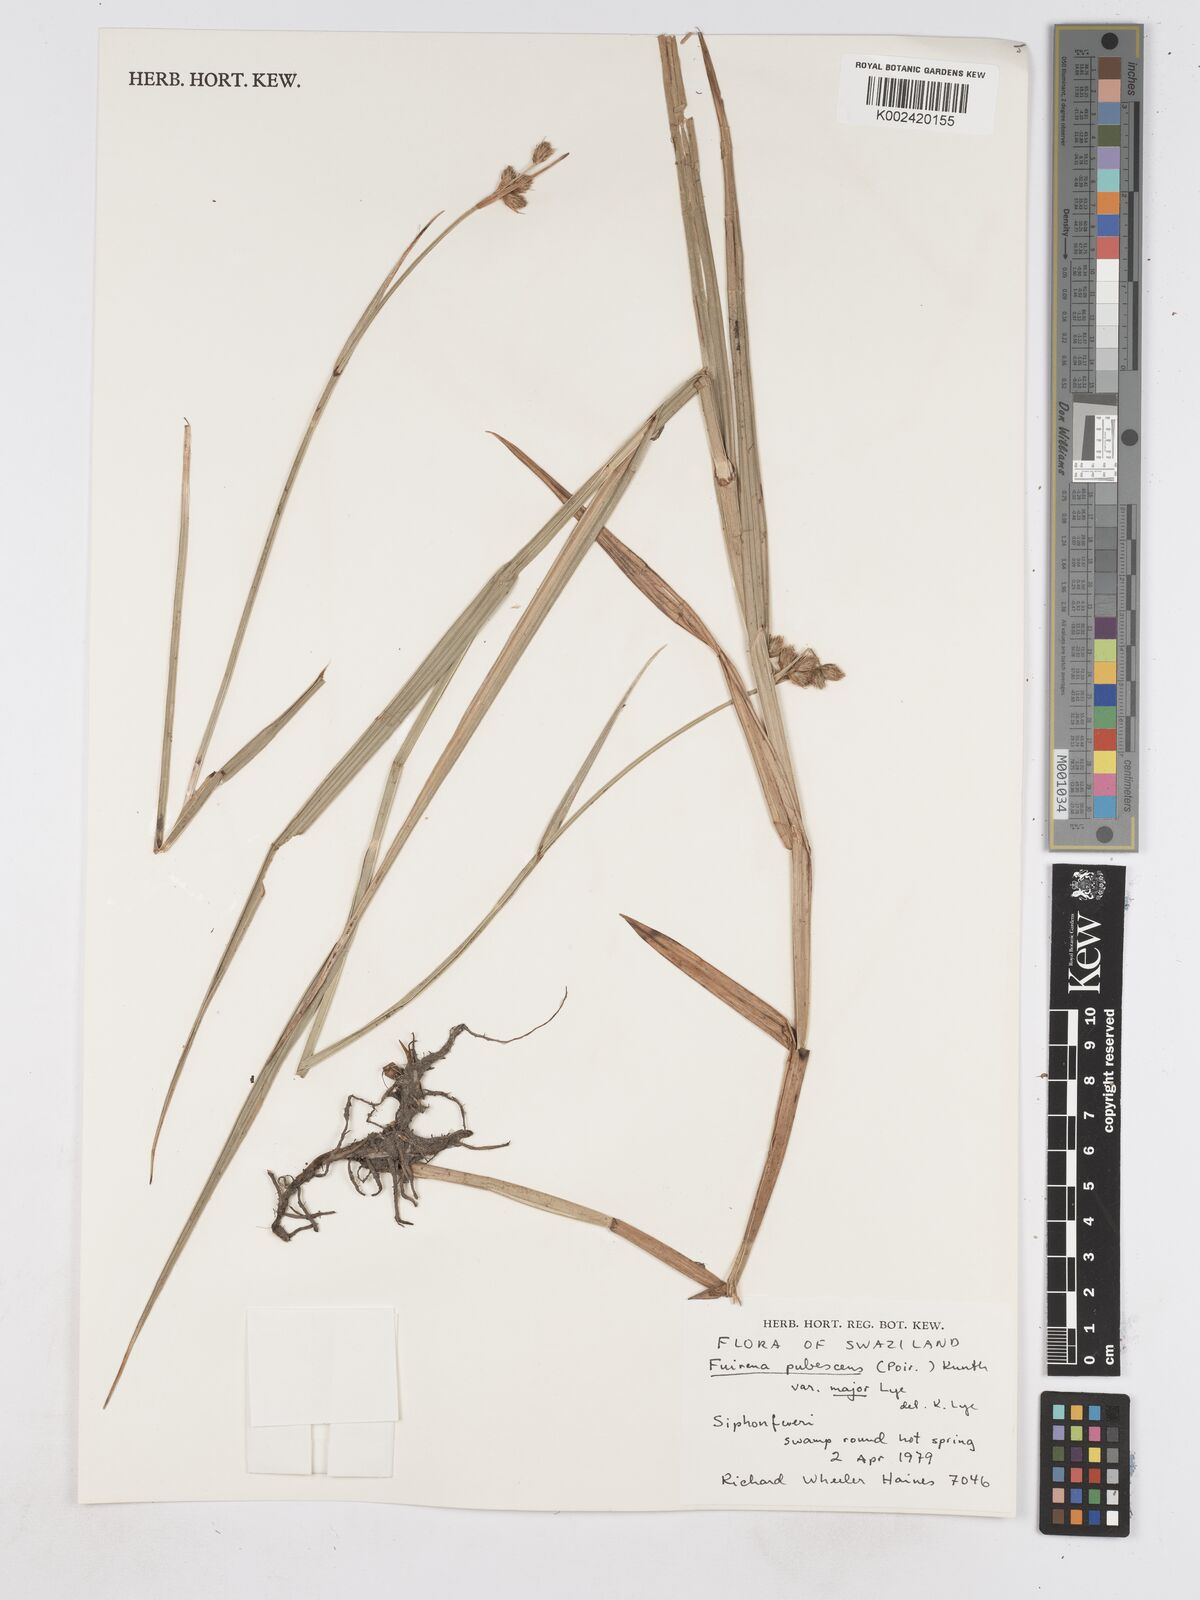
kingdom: Plantae
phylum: Tracheophyta
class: Liliopsida
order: Poales
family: Cyperaceae
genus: Fuirena
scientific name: Fuirena pachyrrhiza
